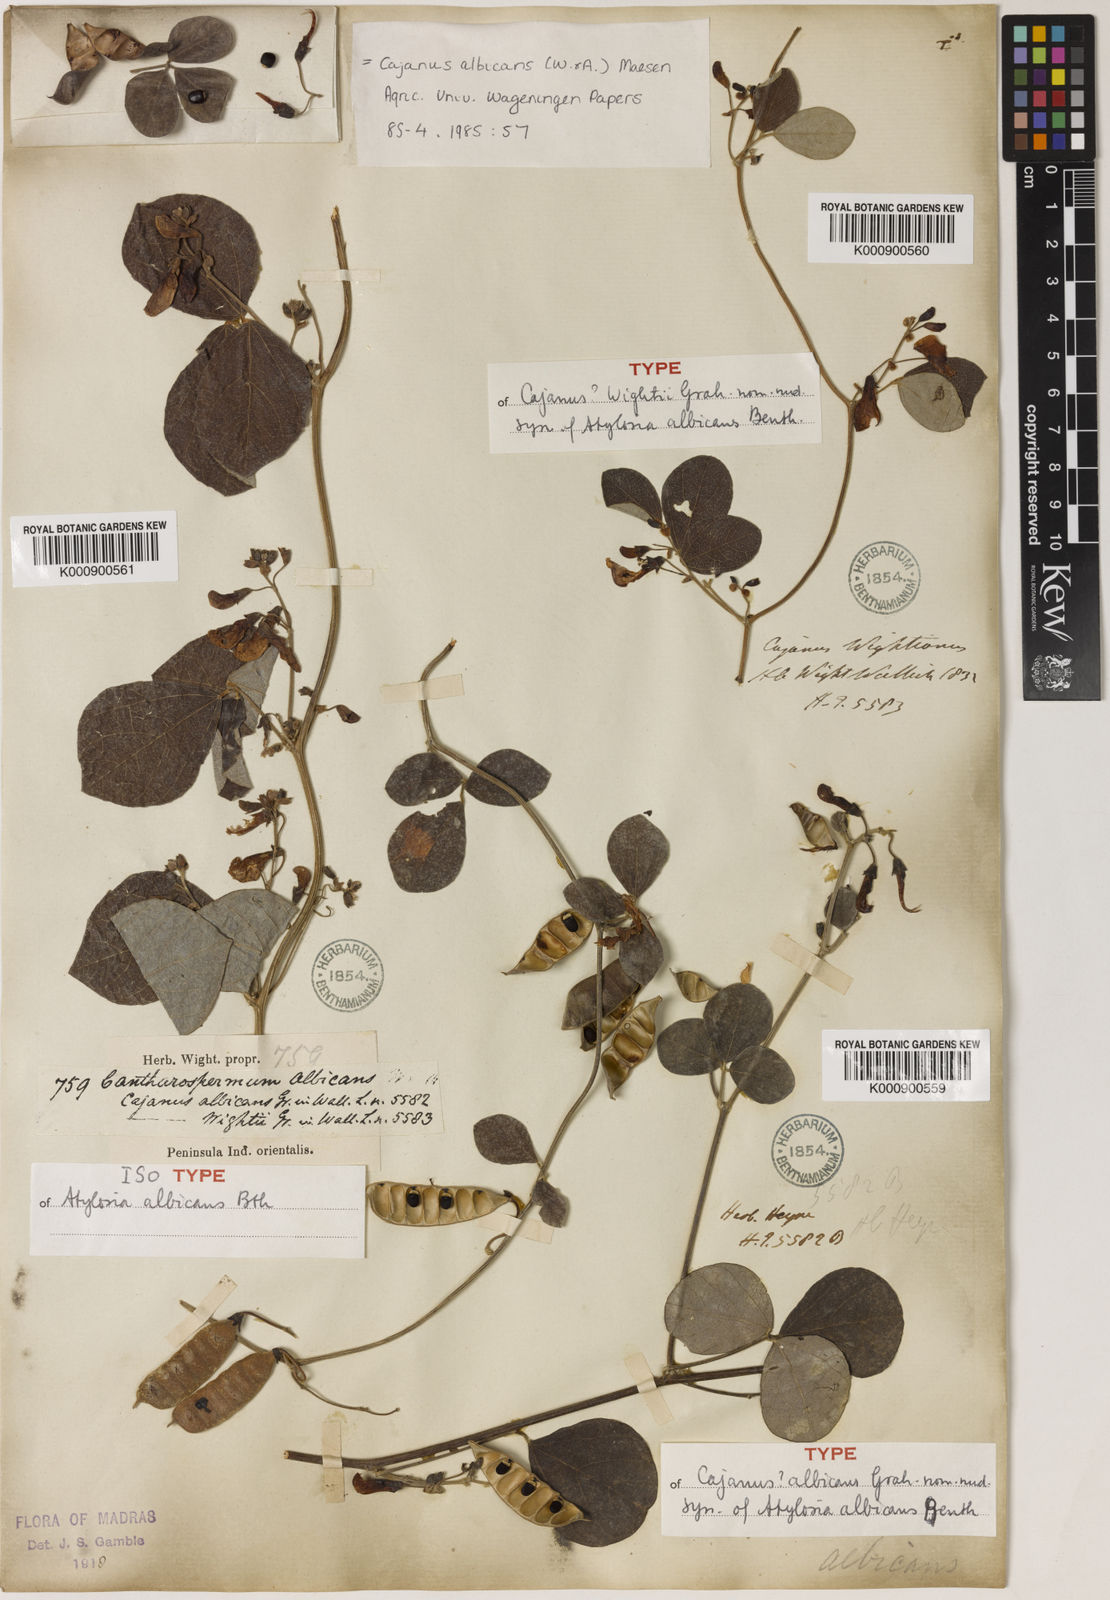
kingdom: Plantae
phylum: Tracheophyta
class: Magnoliopsida
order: Fabales
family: Fabaceae
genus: Cajanus
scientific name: Cajanus albicans
